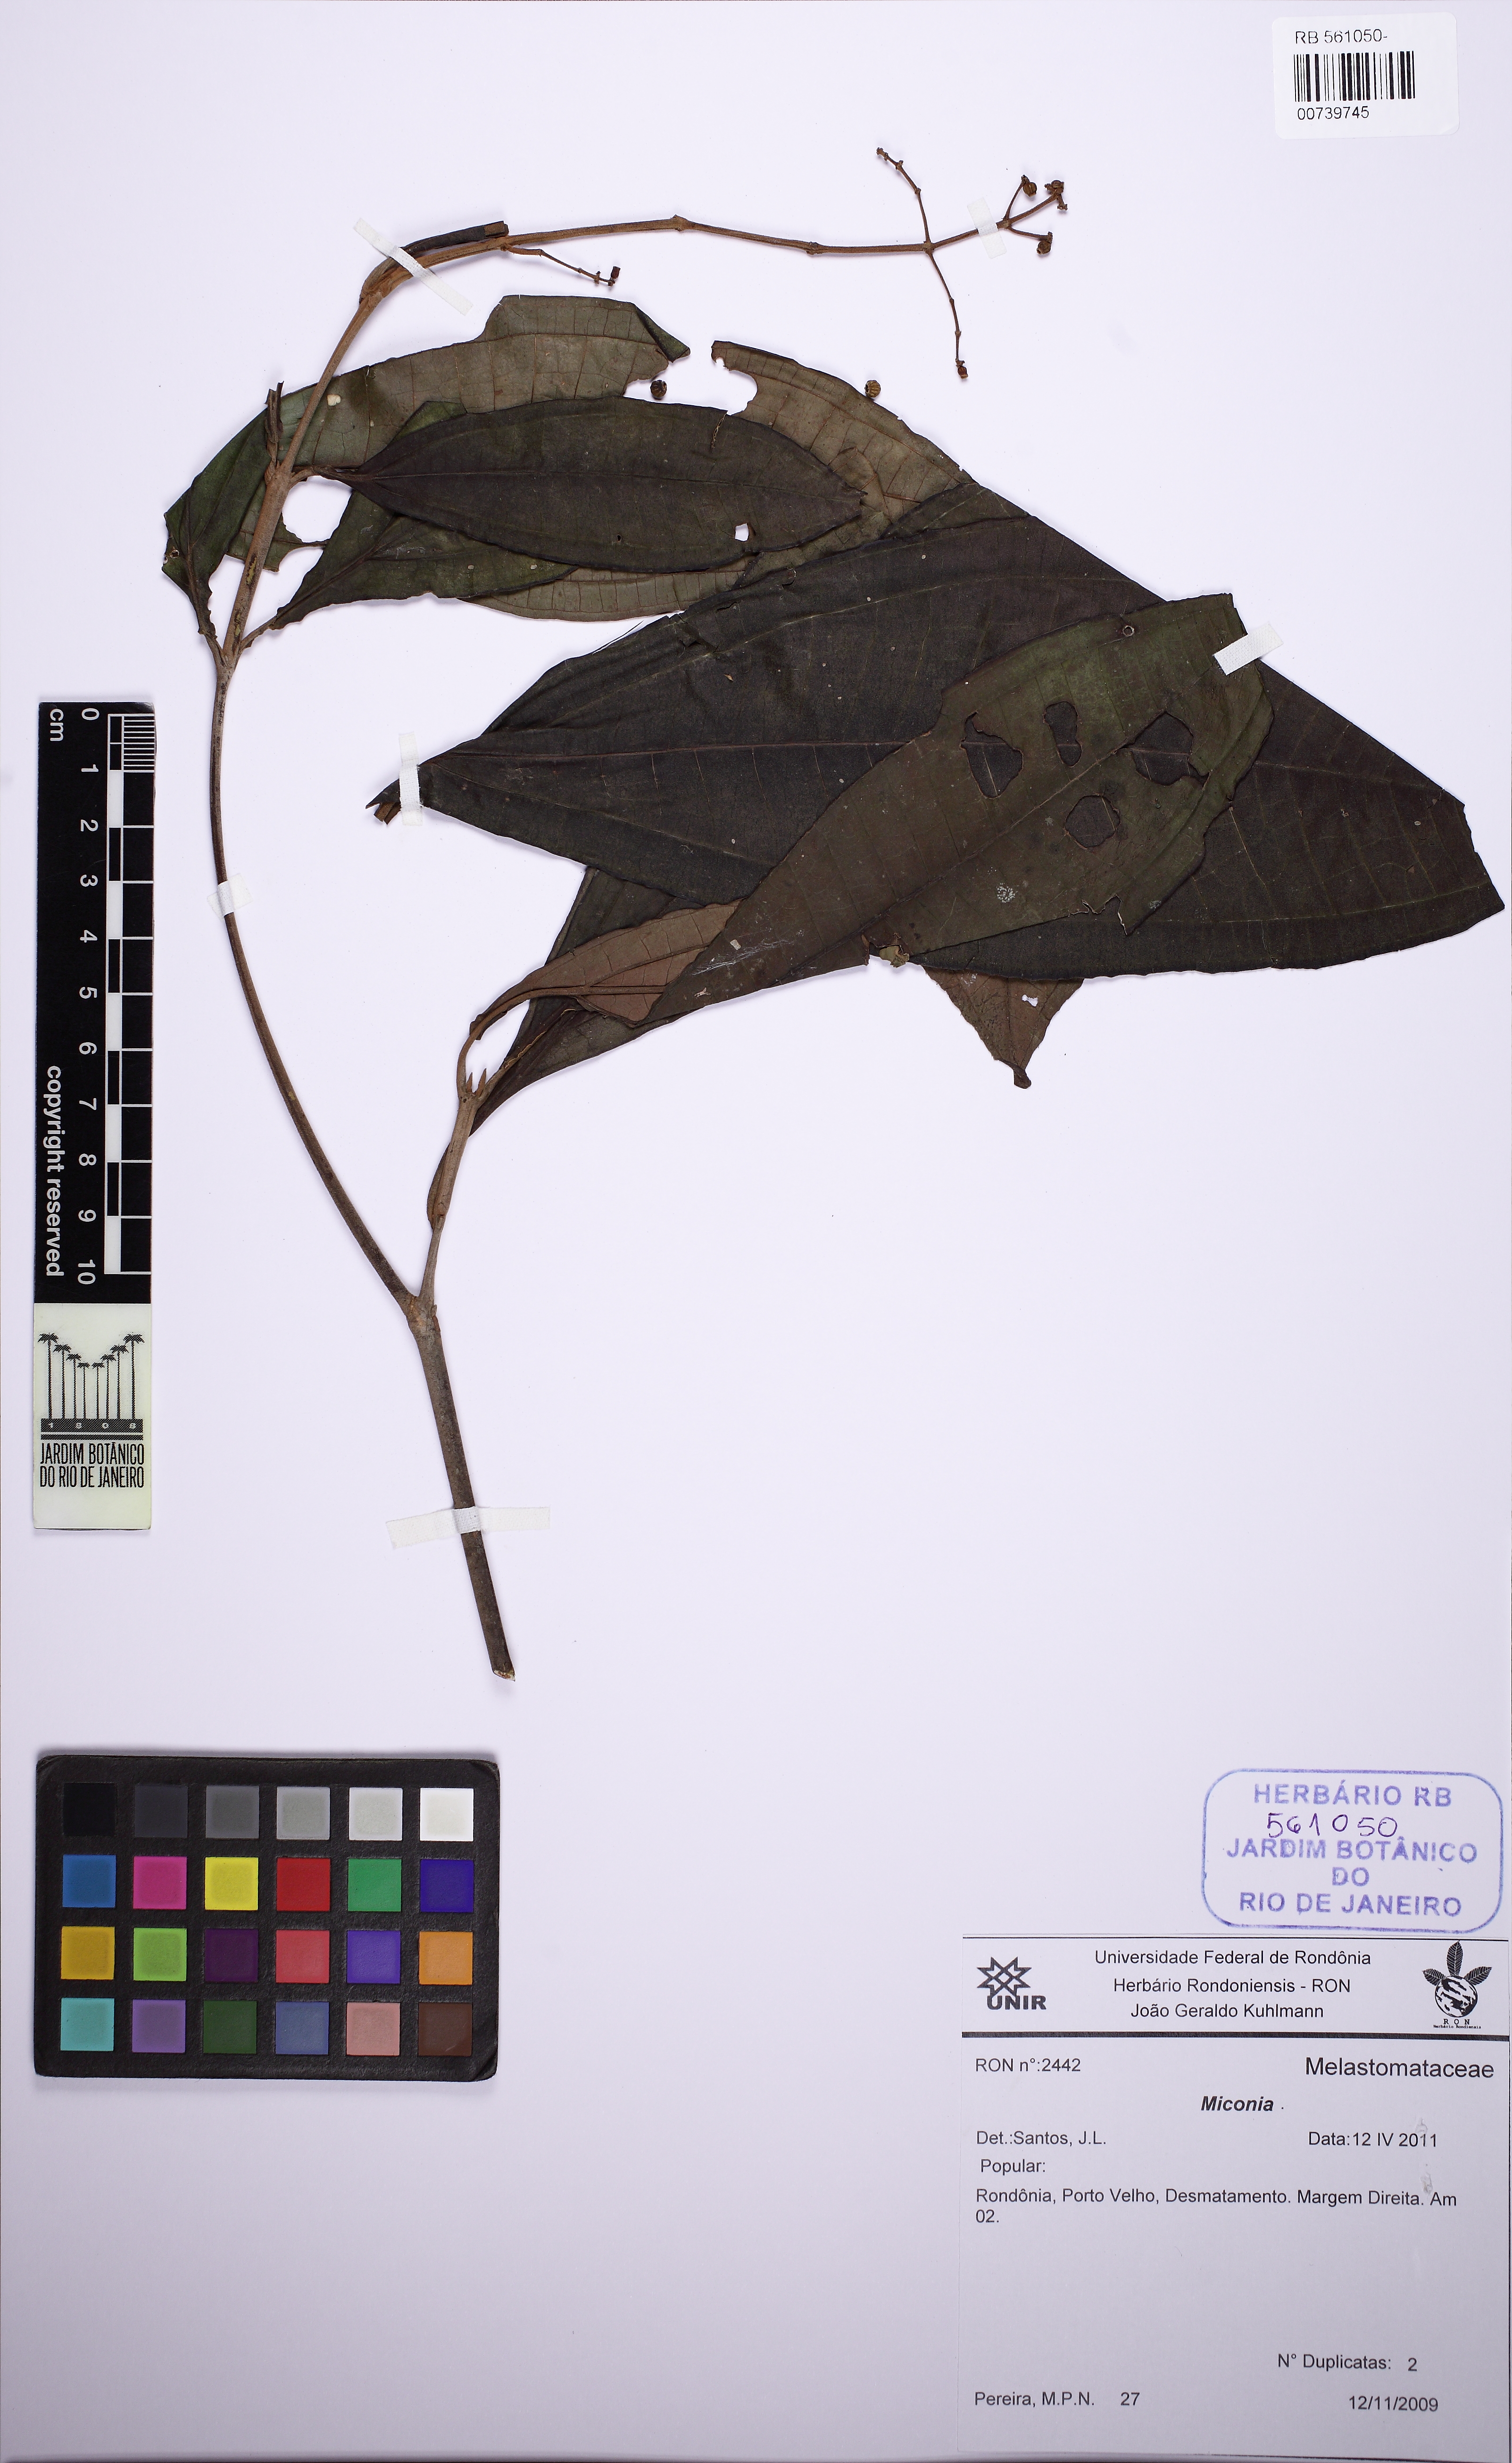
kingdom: Plantae
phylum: Tracheophyta
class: Magnoliopsida
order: Myrtales
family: Melastomataceae
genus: Miconia
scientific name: Miconia prasina
